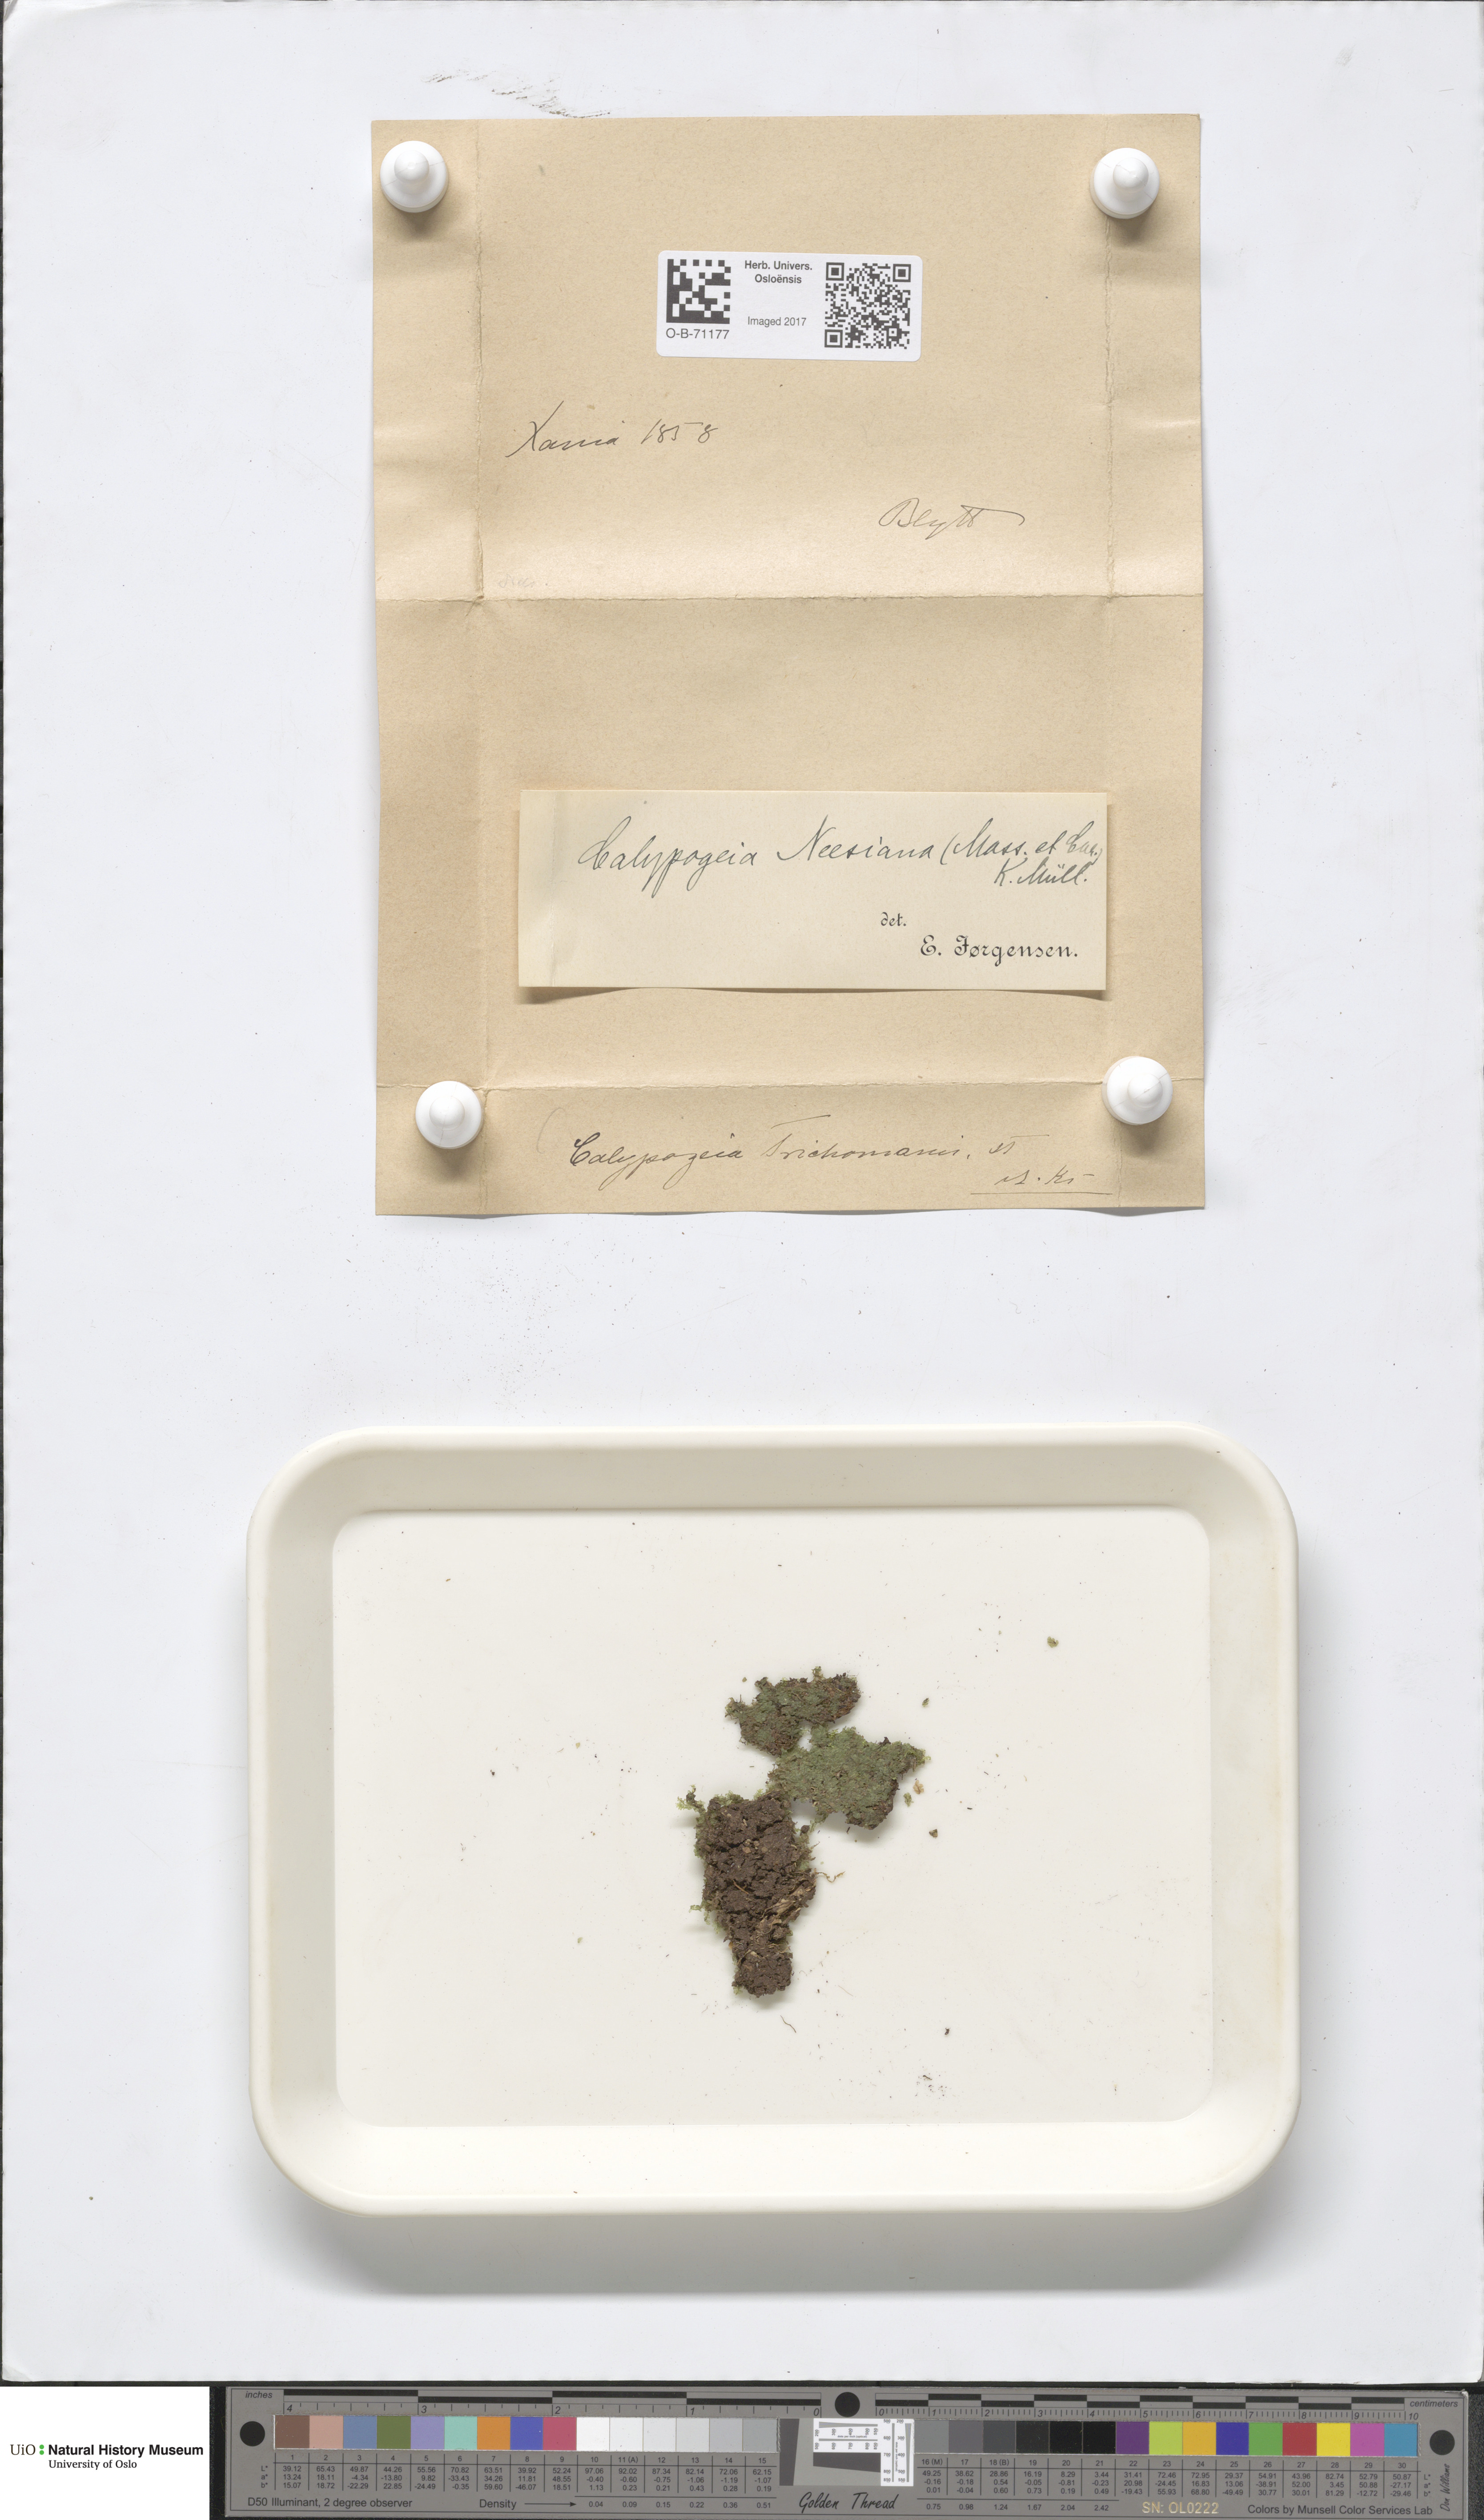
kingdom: Plantae
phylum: Marchantiophyta
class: Jungermanniopsida
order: Jungermanniales
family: Calypogeiaceae
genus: Calypogeia
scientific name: Calypogeia neesiana
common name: Nees  pouchwort
